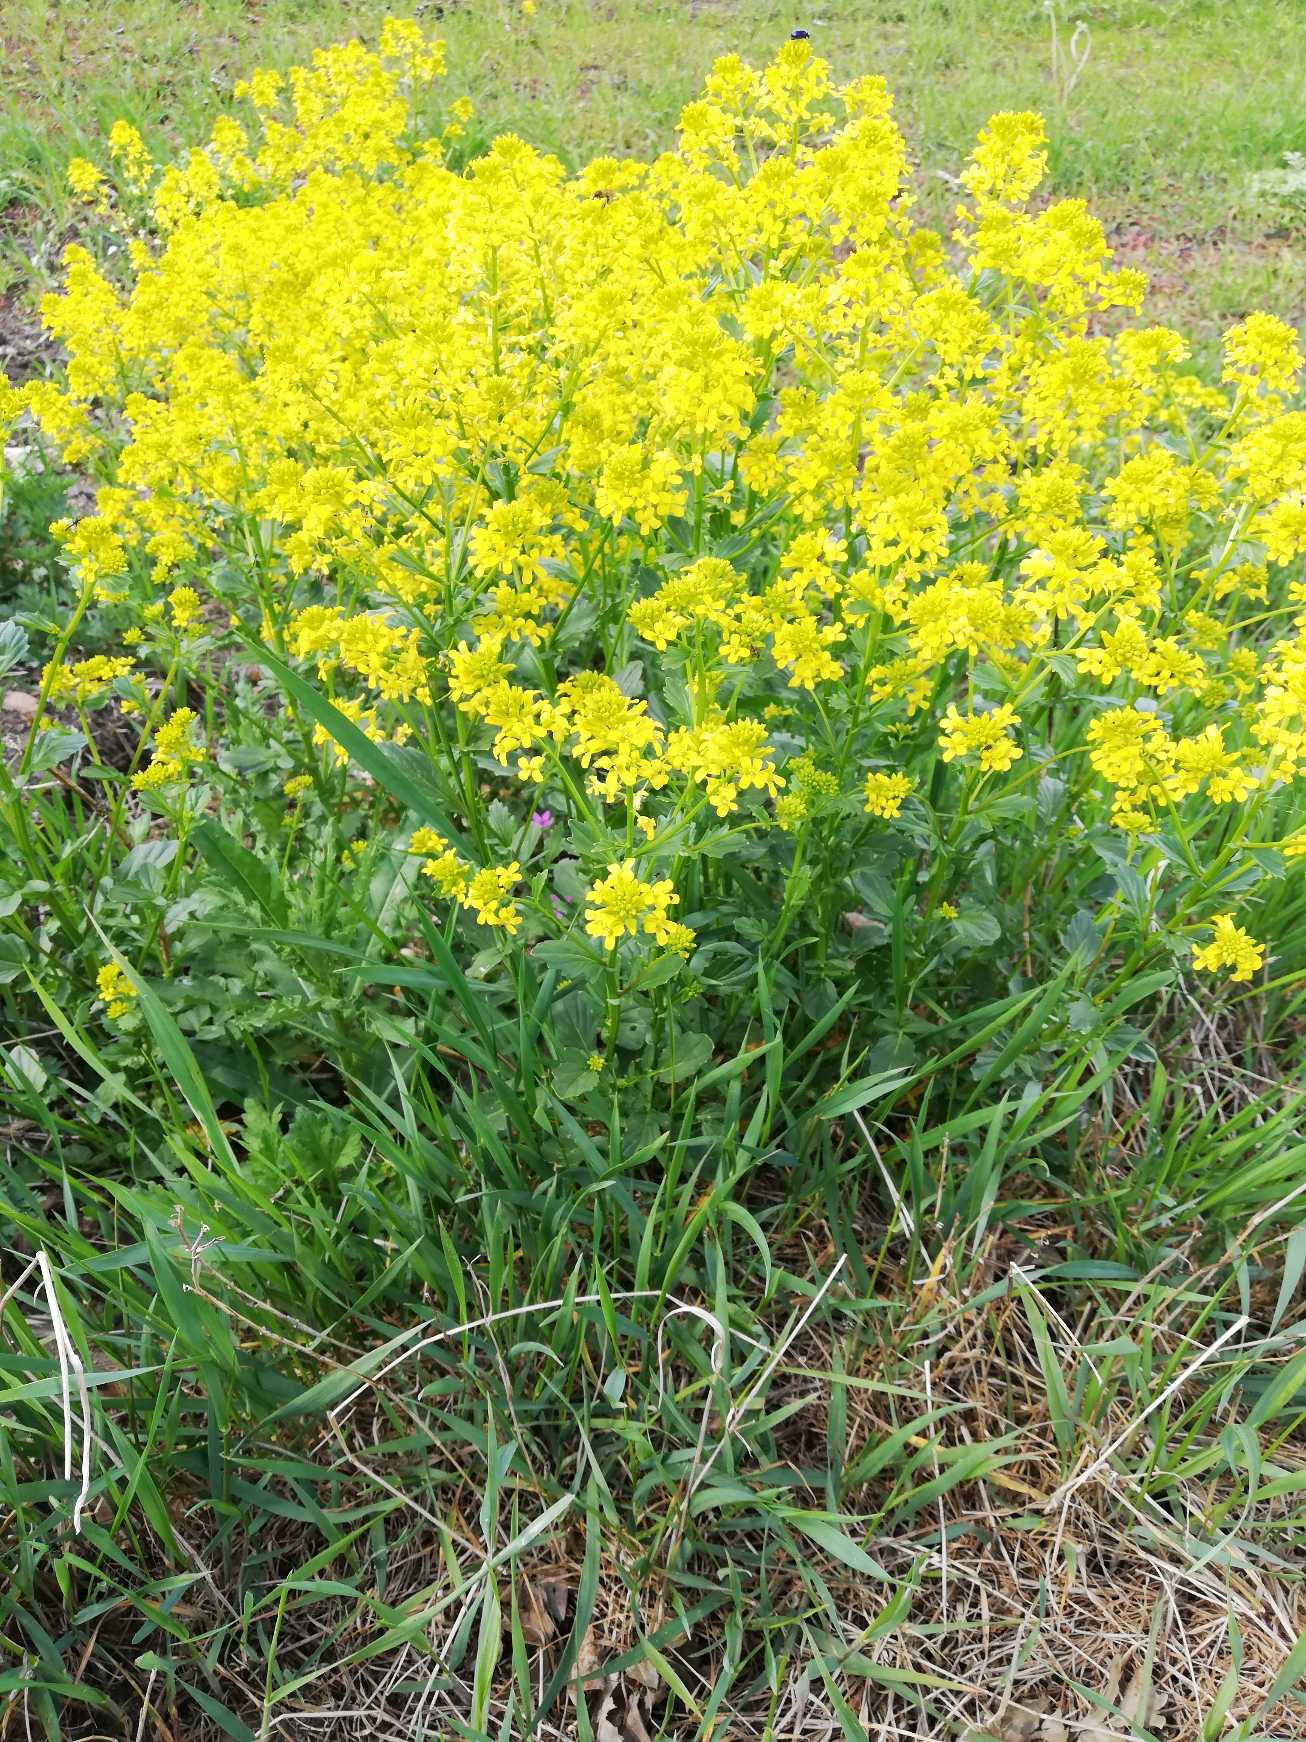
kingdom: Plantae
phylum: Tracheophyta
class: Magnoliopsida
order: Brassicales
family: Brassicaceae
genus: Barbarea
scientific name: Barbarea vulgaris
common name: Udspærret vinterkarse
